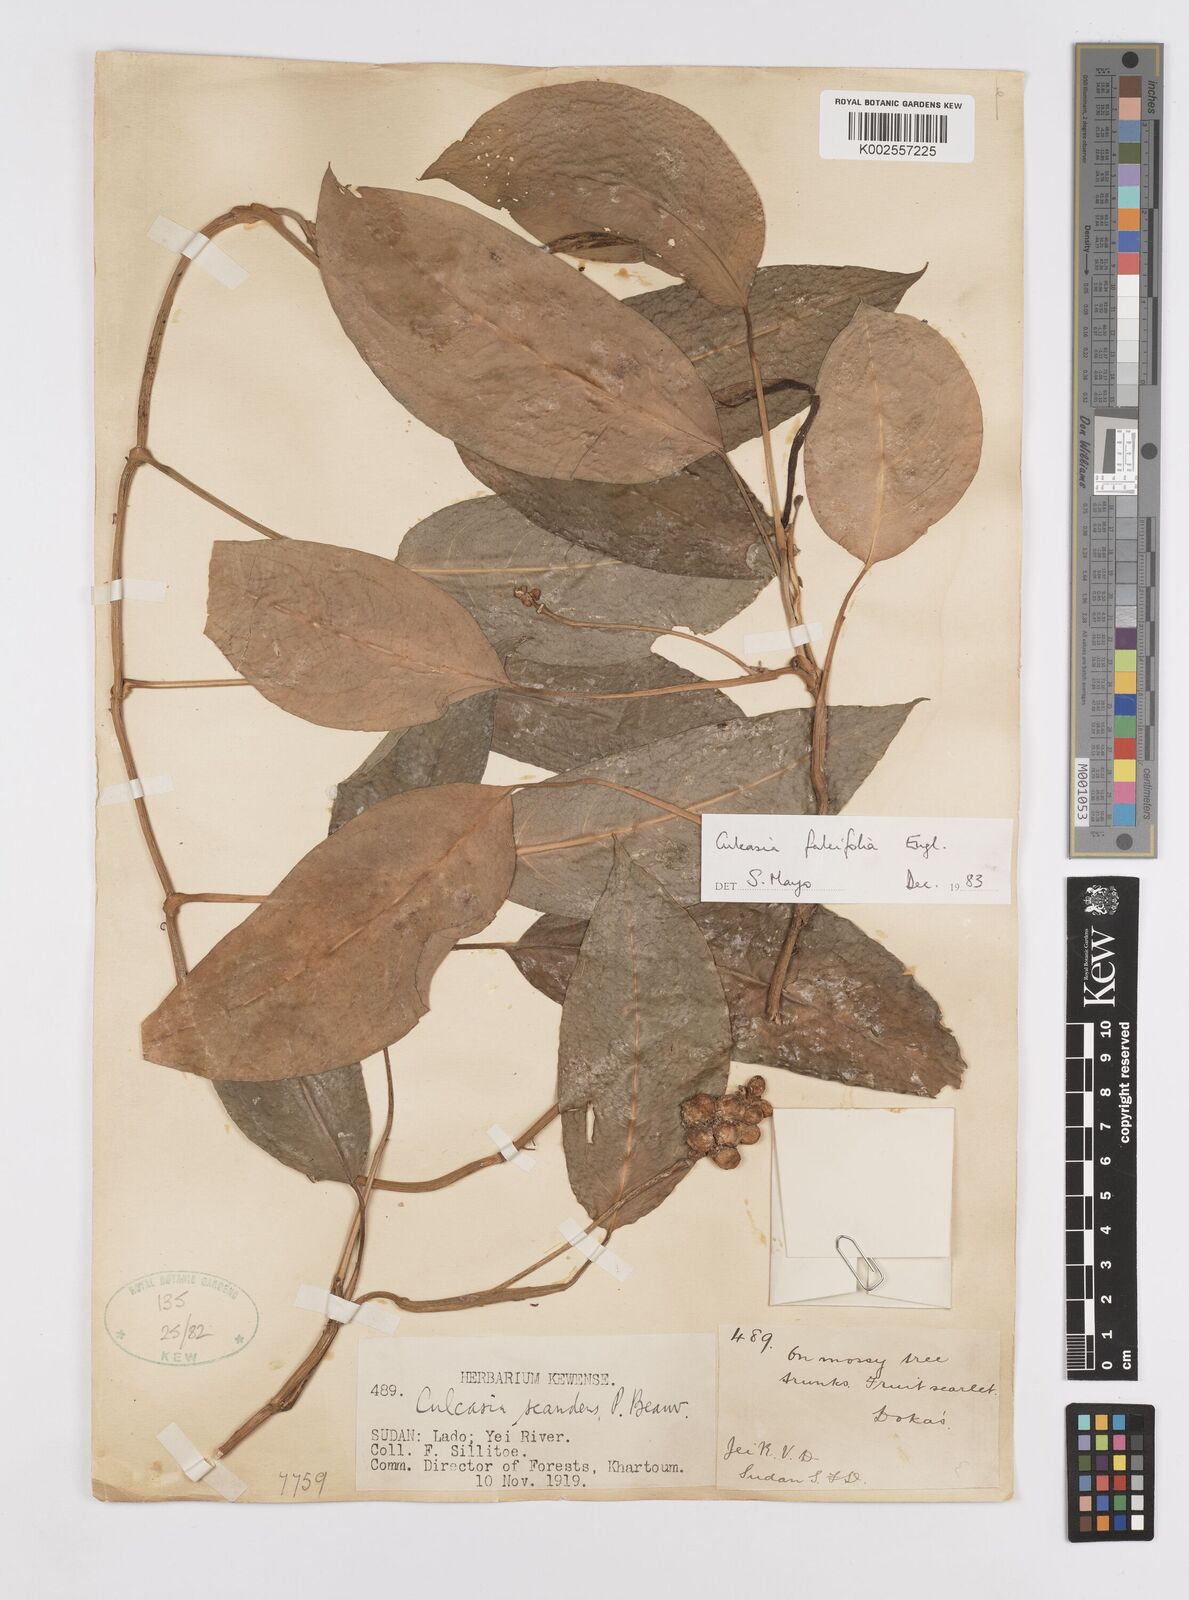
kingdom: Plantae
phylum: Tracheophyta
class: Liliopsida
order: Alismatales
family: Araceae
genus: Culcasia
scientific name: Culcasia falcifolia
